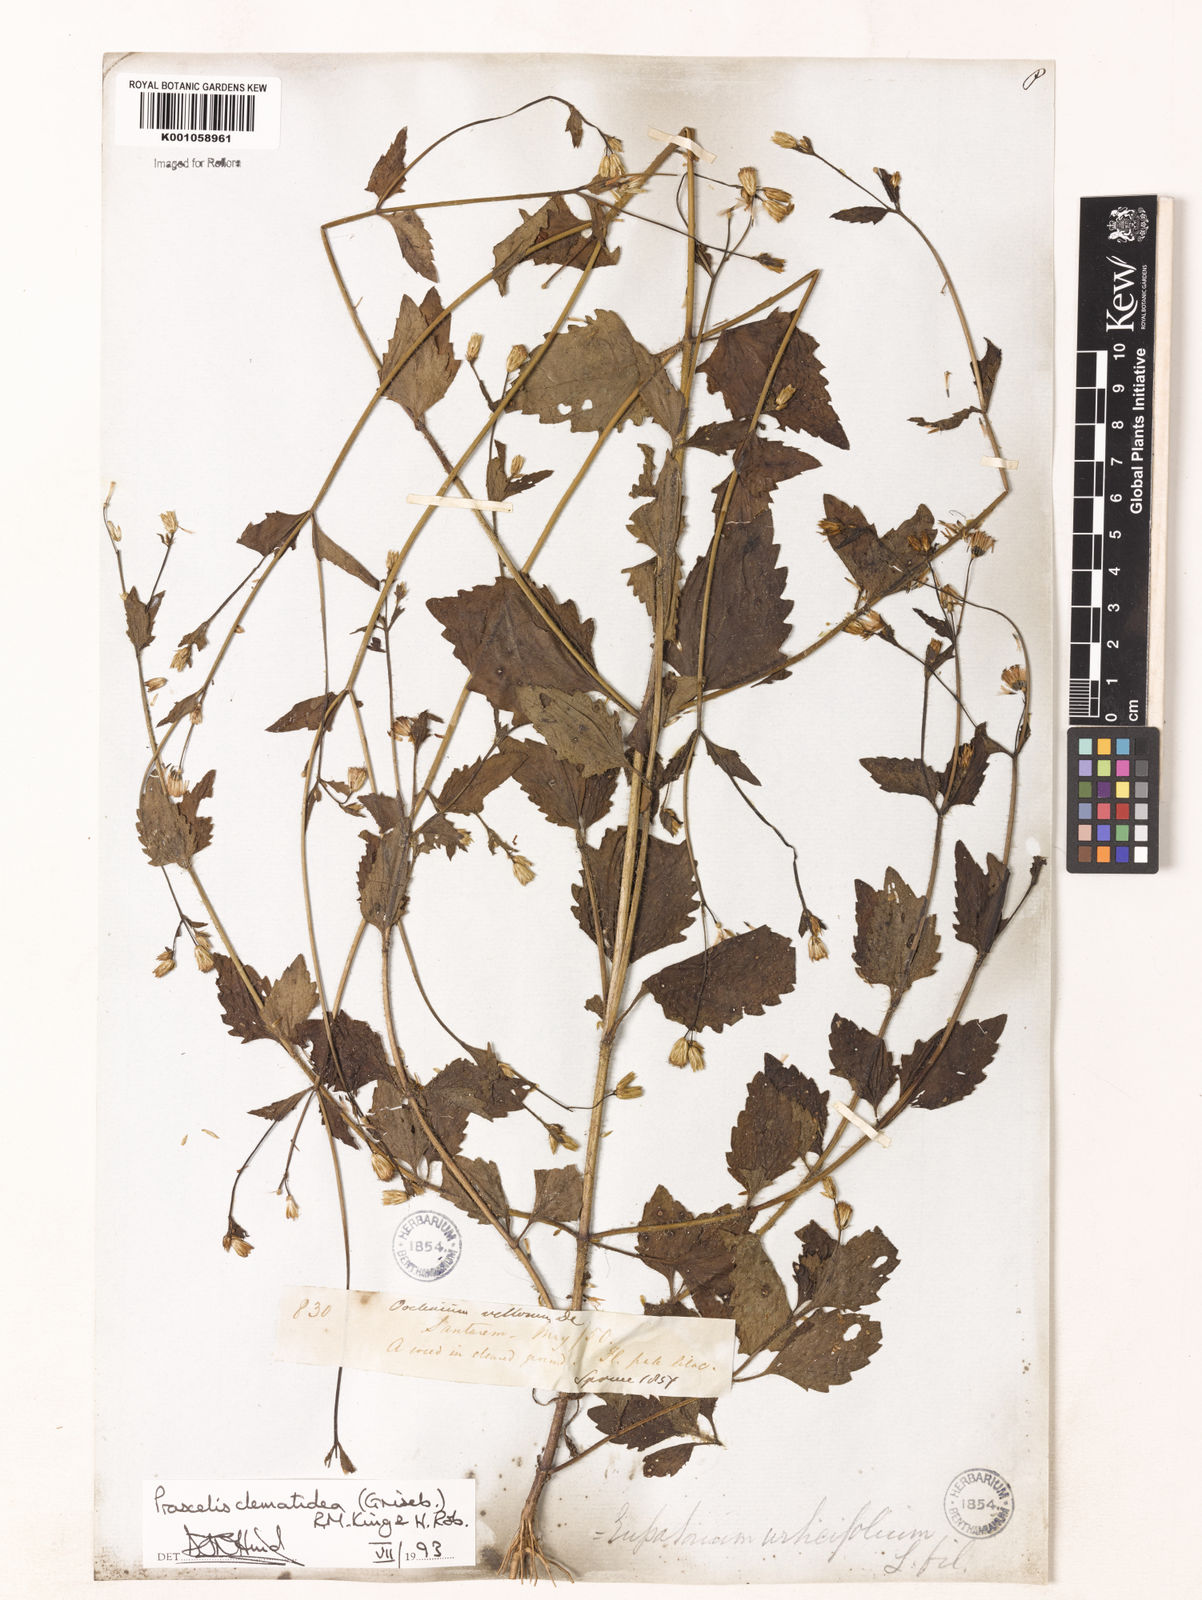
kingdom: Plantae
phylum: Tracheophyta
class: Magnoliopsida
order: Asterales
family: Asteraceae
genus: Praxelis
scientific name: Praxelis diffusa
